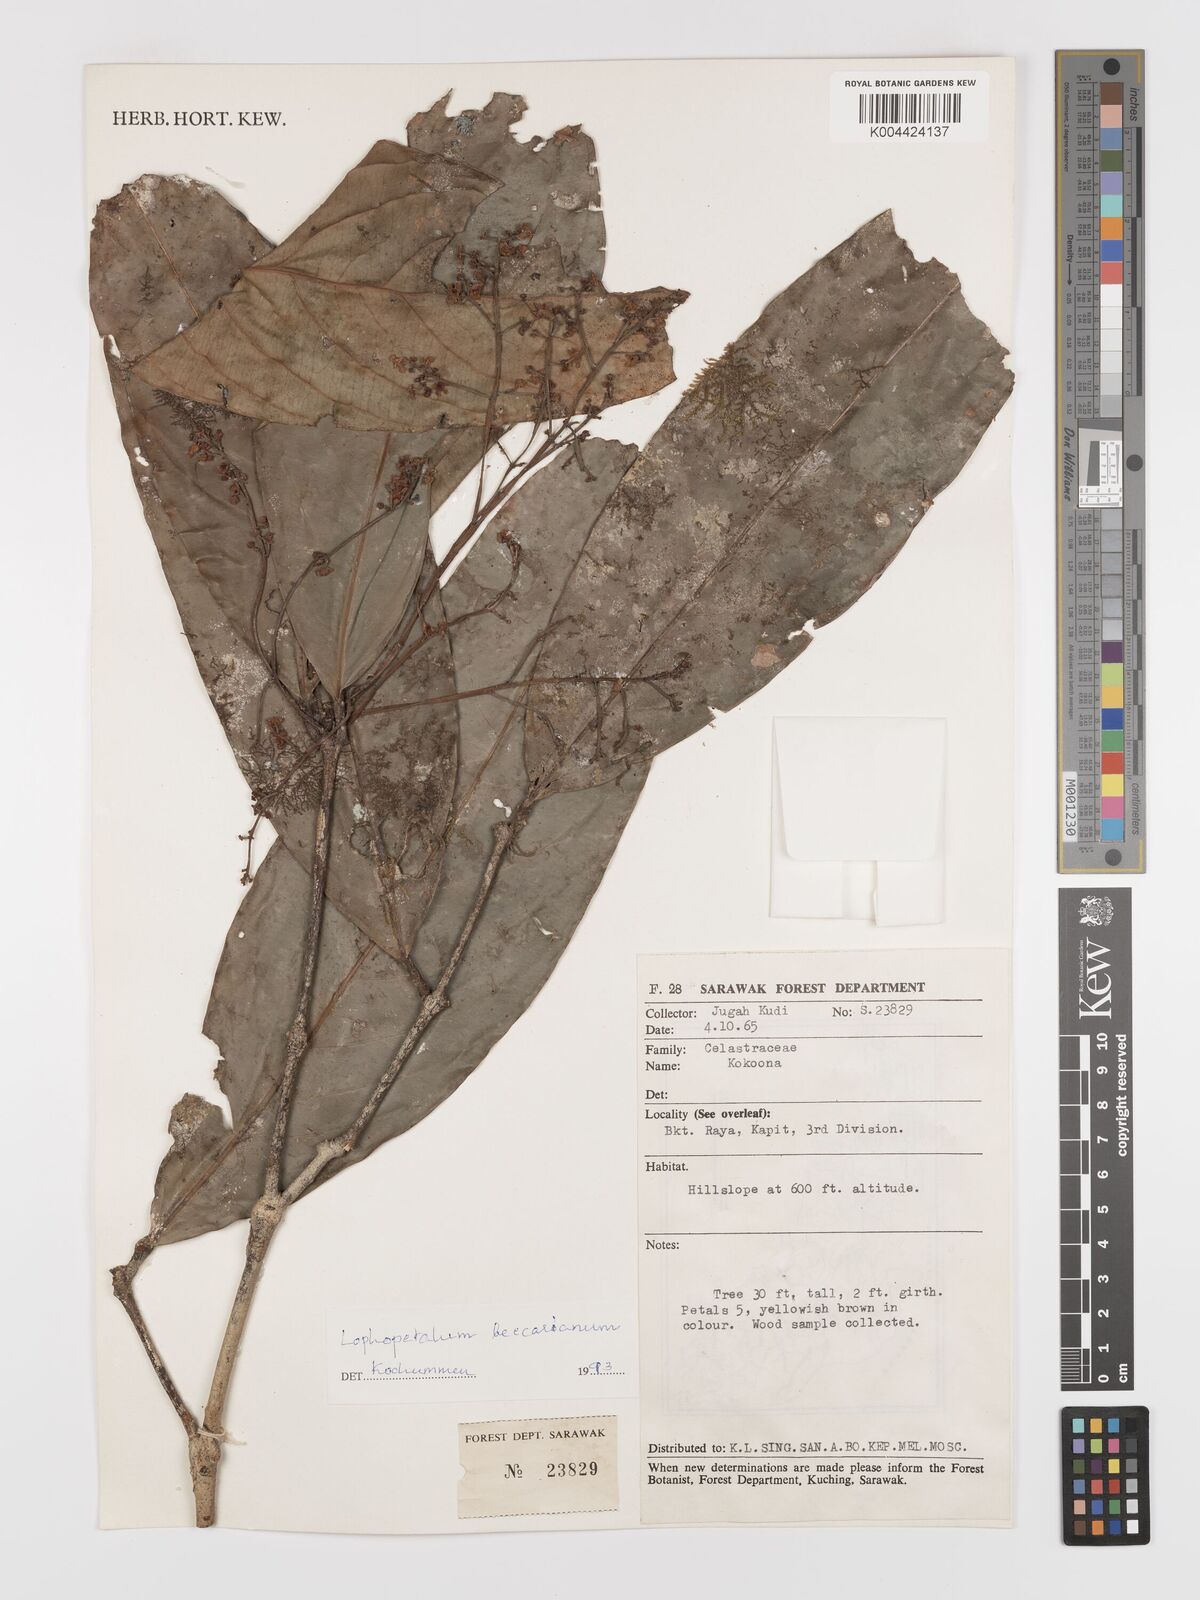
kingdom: Plantae
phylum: Tracheophyta
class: Magnoliopsida
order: Celastrales
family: Celastraceae
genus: Lophopetalum
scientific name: Lophopetalum beccarianum
